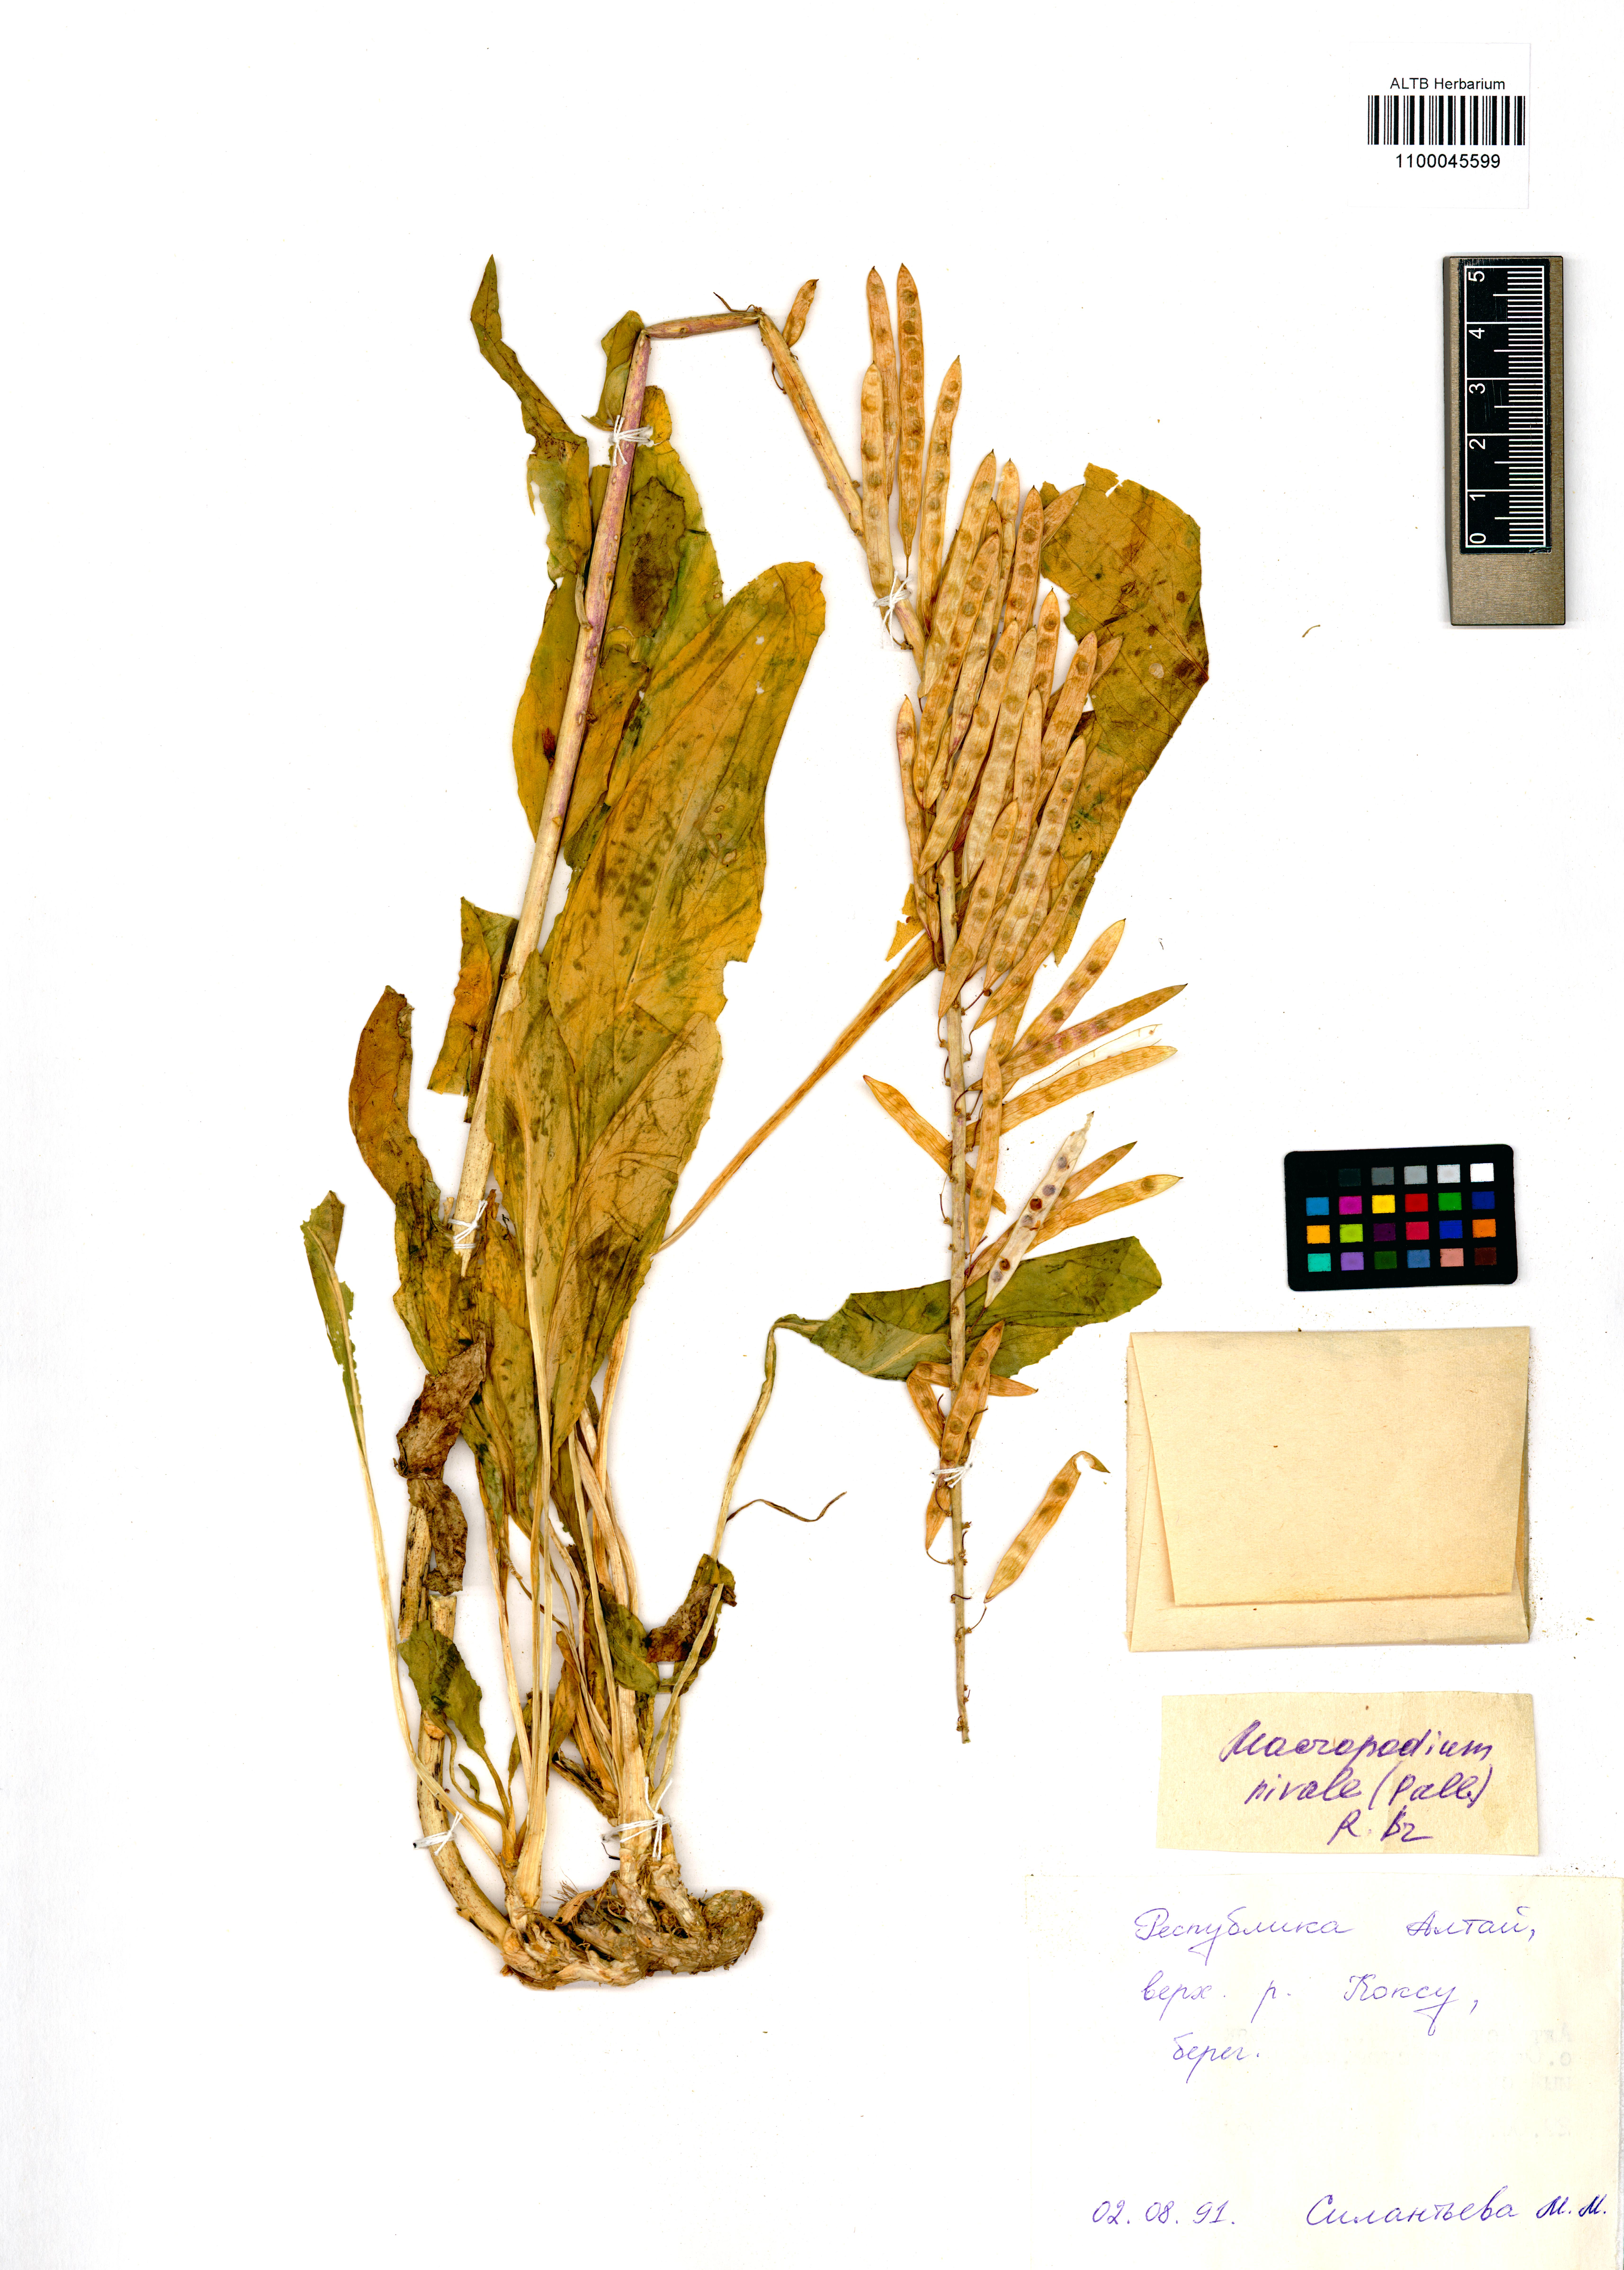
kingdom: Plantae
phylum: Tracheophyta
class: Magnoliopsida
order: Brassicales
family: Brassicaceae
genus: Macropodium
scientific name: Macropodium nivale
